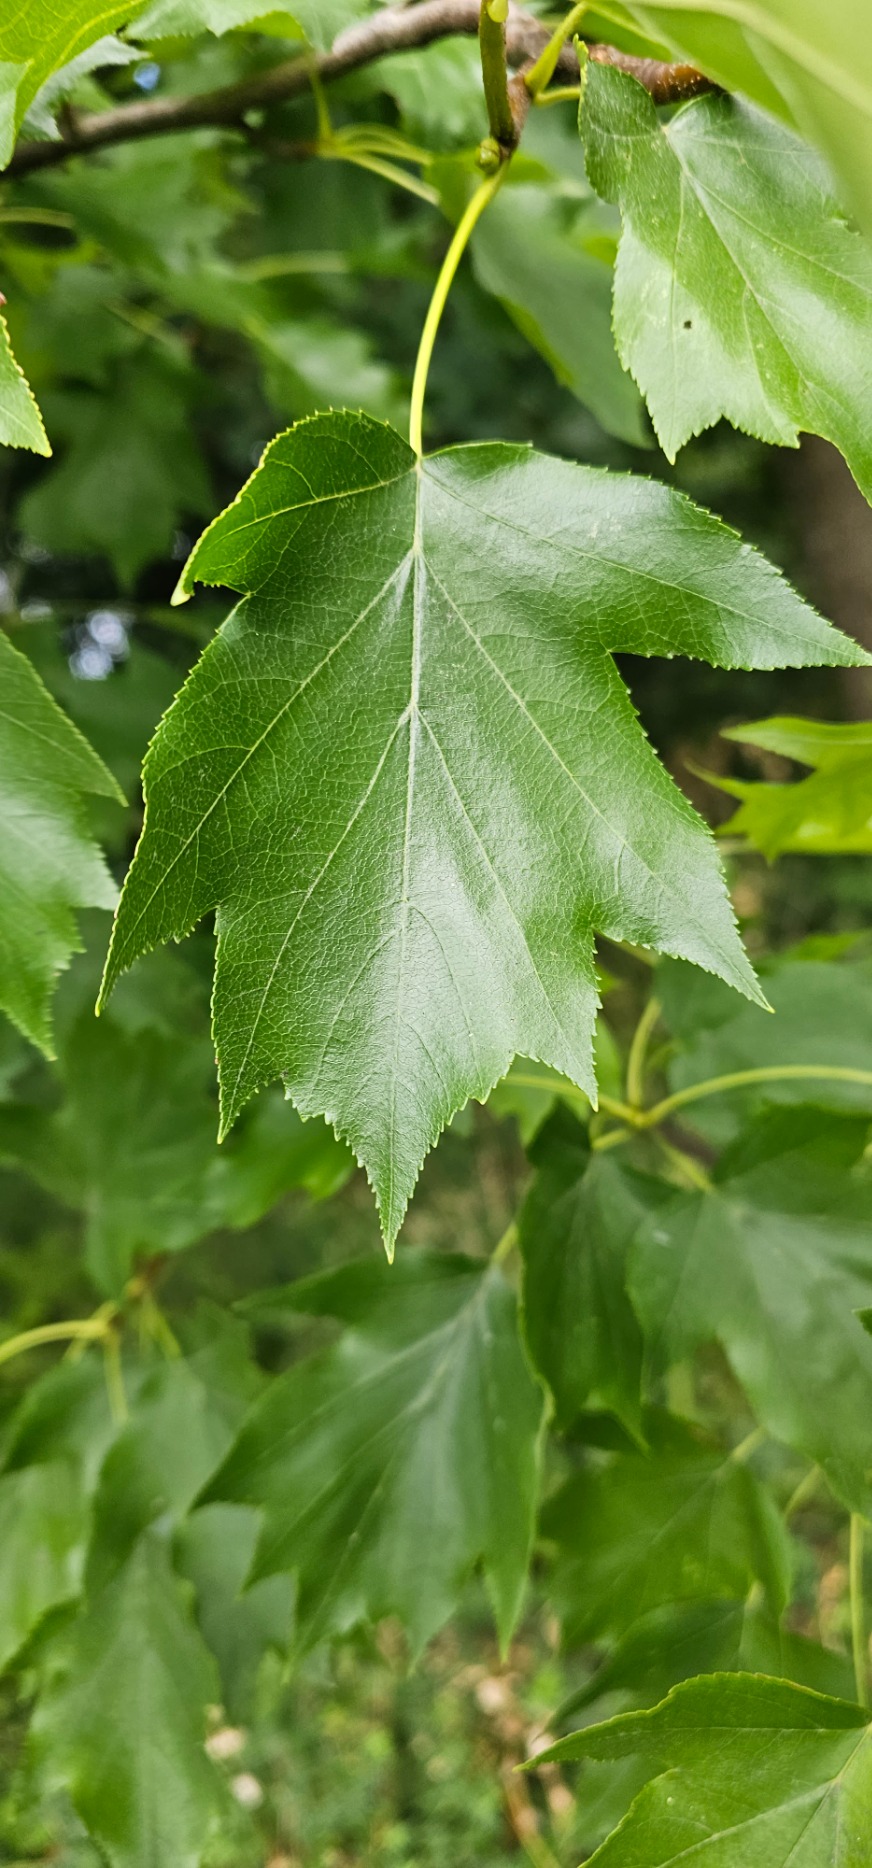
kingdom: Plantae
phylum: Tracheophyta
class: Magnoliopsida
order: Rosales
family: Rosaceae
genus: Torminalis
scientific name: Torminalis glaberrima
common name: Tarmvrid-røn
